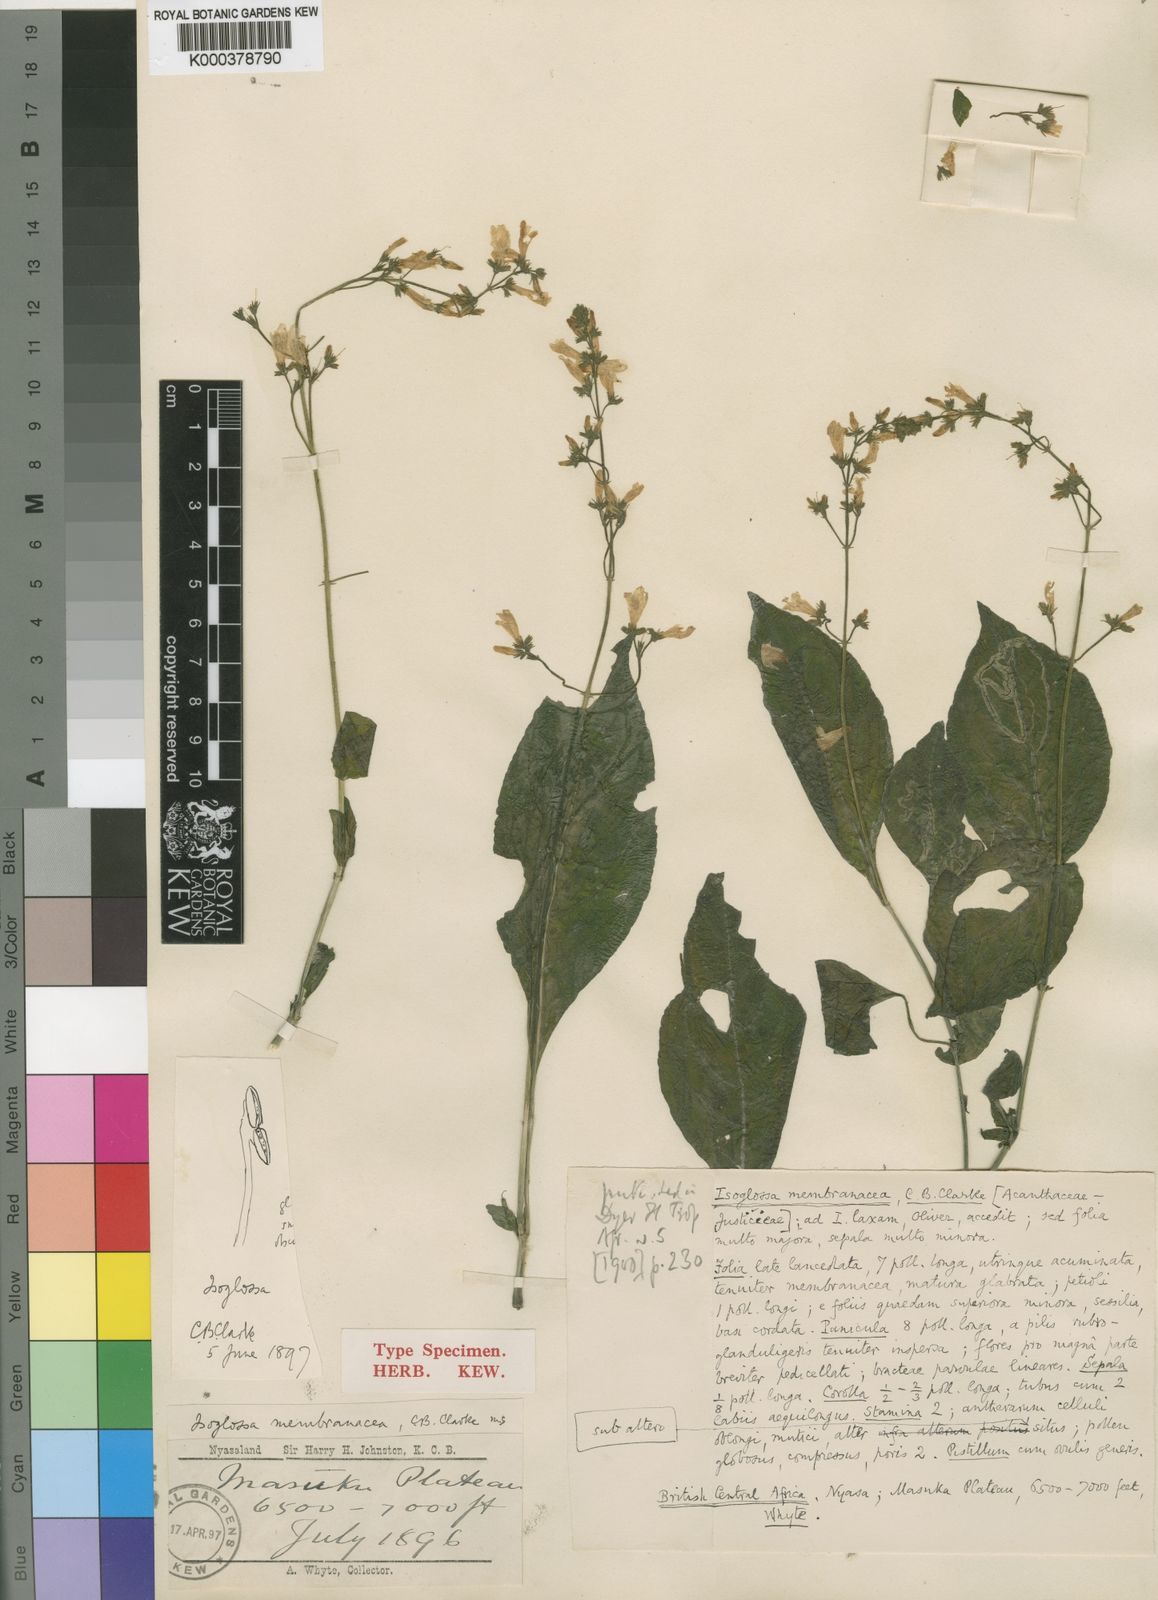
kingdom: Plantae
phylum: Tracheophyta
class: Magnoliopsida
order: Lamiales
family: Acanthaceae
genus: Isoglossa
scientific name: Isoglossa membranacea
